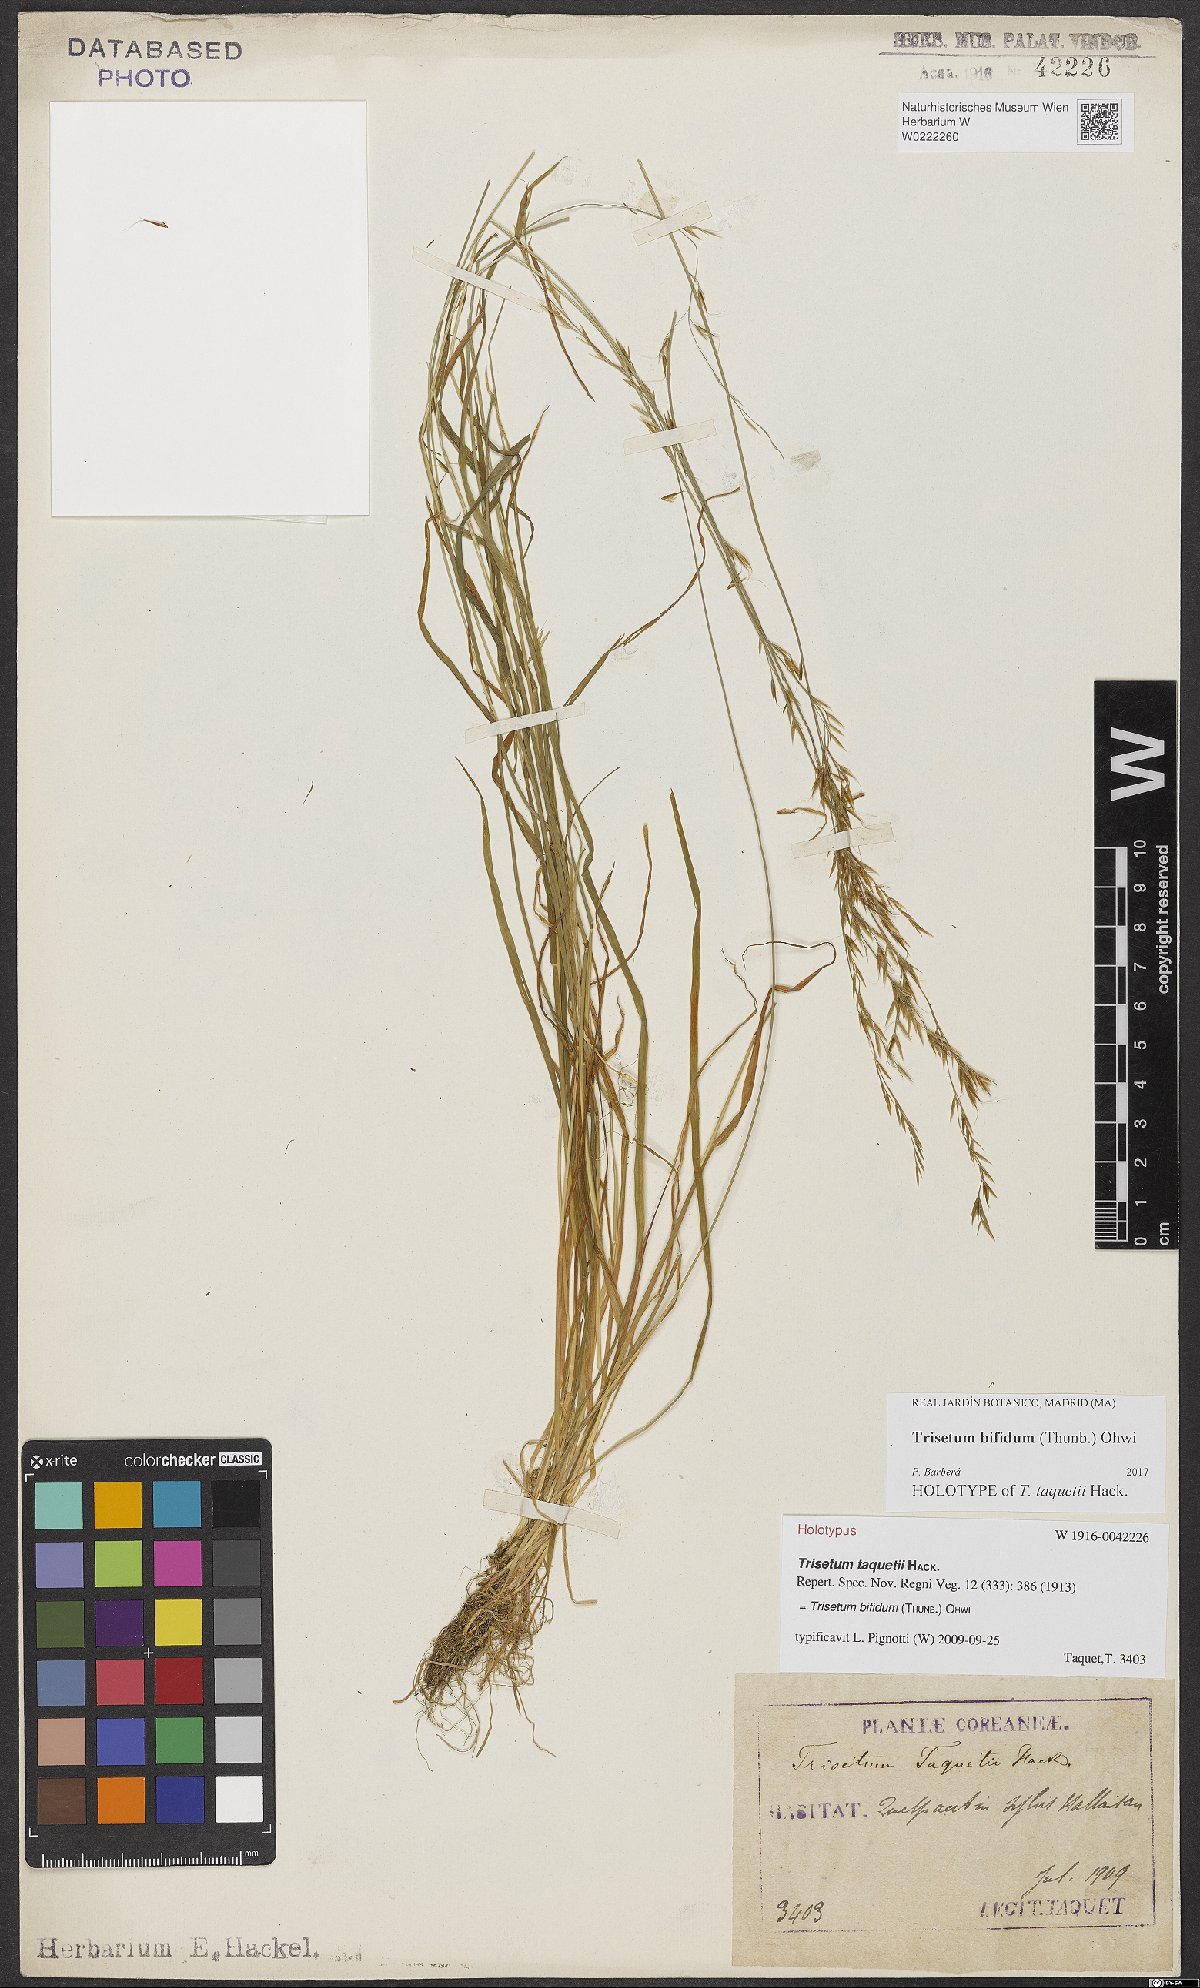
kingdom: Plantae
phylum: Tracheophyta
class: Liliopsida
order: Poales
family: Poaceae
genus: Sibirotrisetum
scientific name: Sibirotrisetum bifidum
